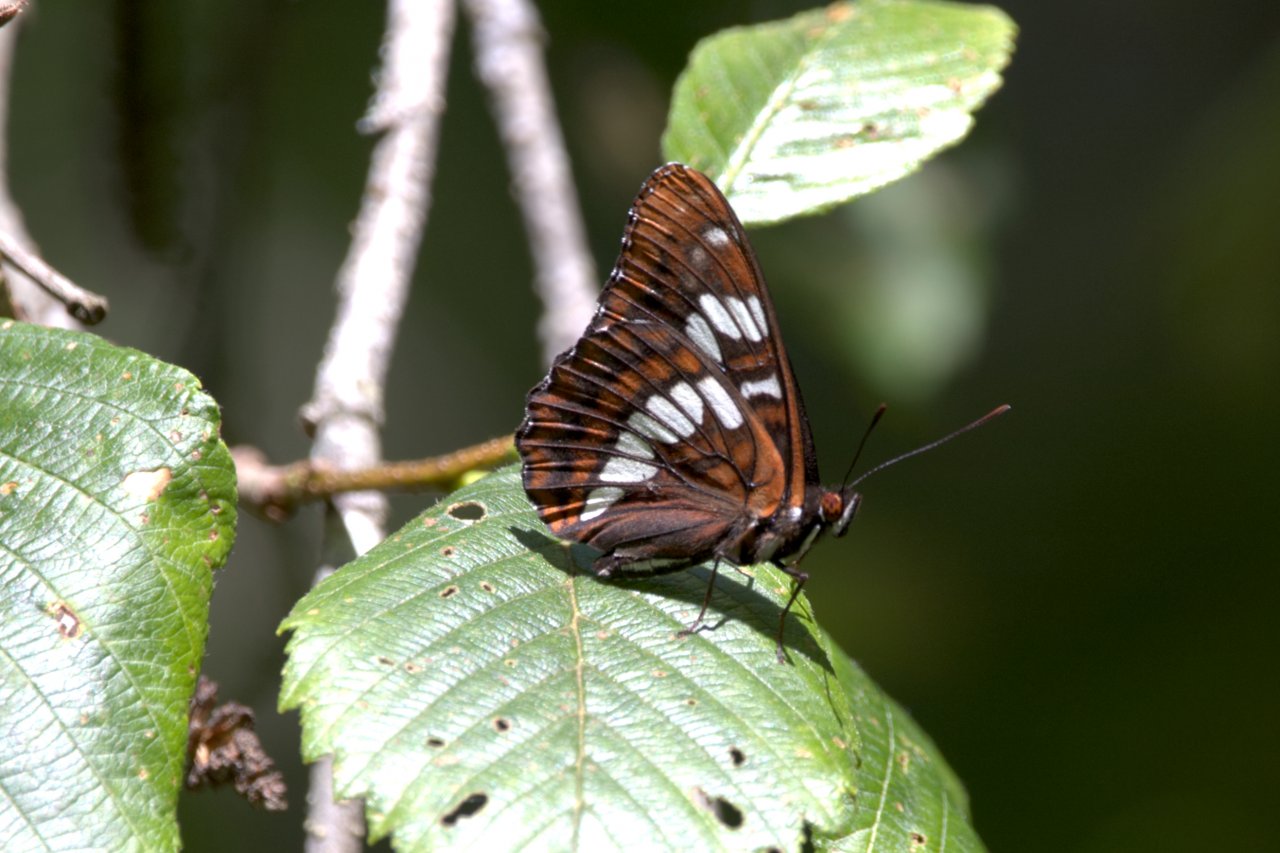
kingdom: Animalia
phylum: Arthropoda
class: Insecta
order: Lepidoptera
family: Nymphalidae
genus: Limenitis
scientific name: Limenitis lorquini
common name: Lorquin's Admiral
